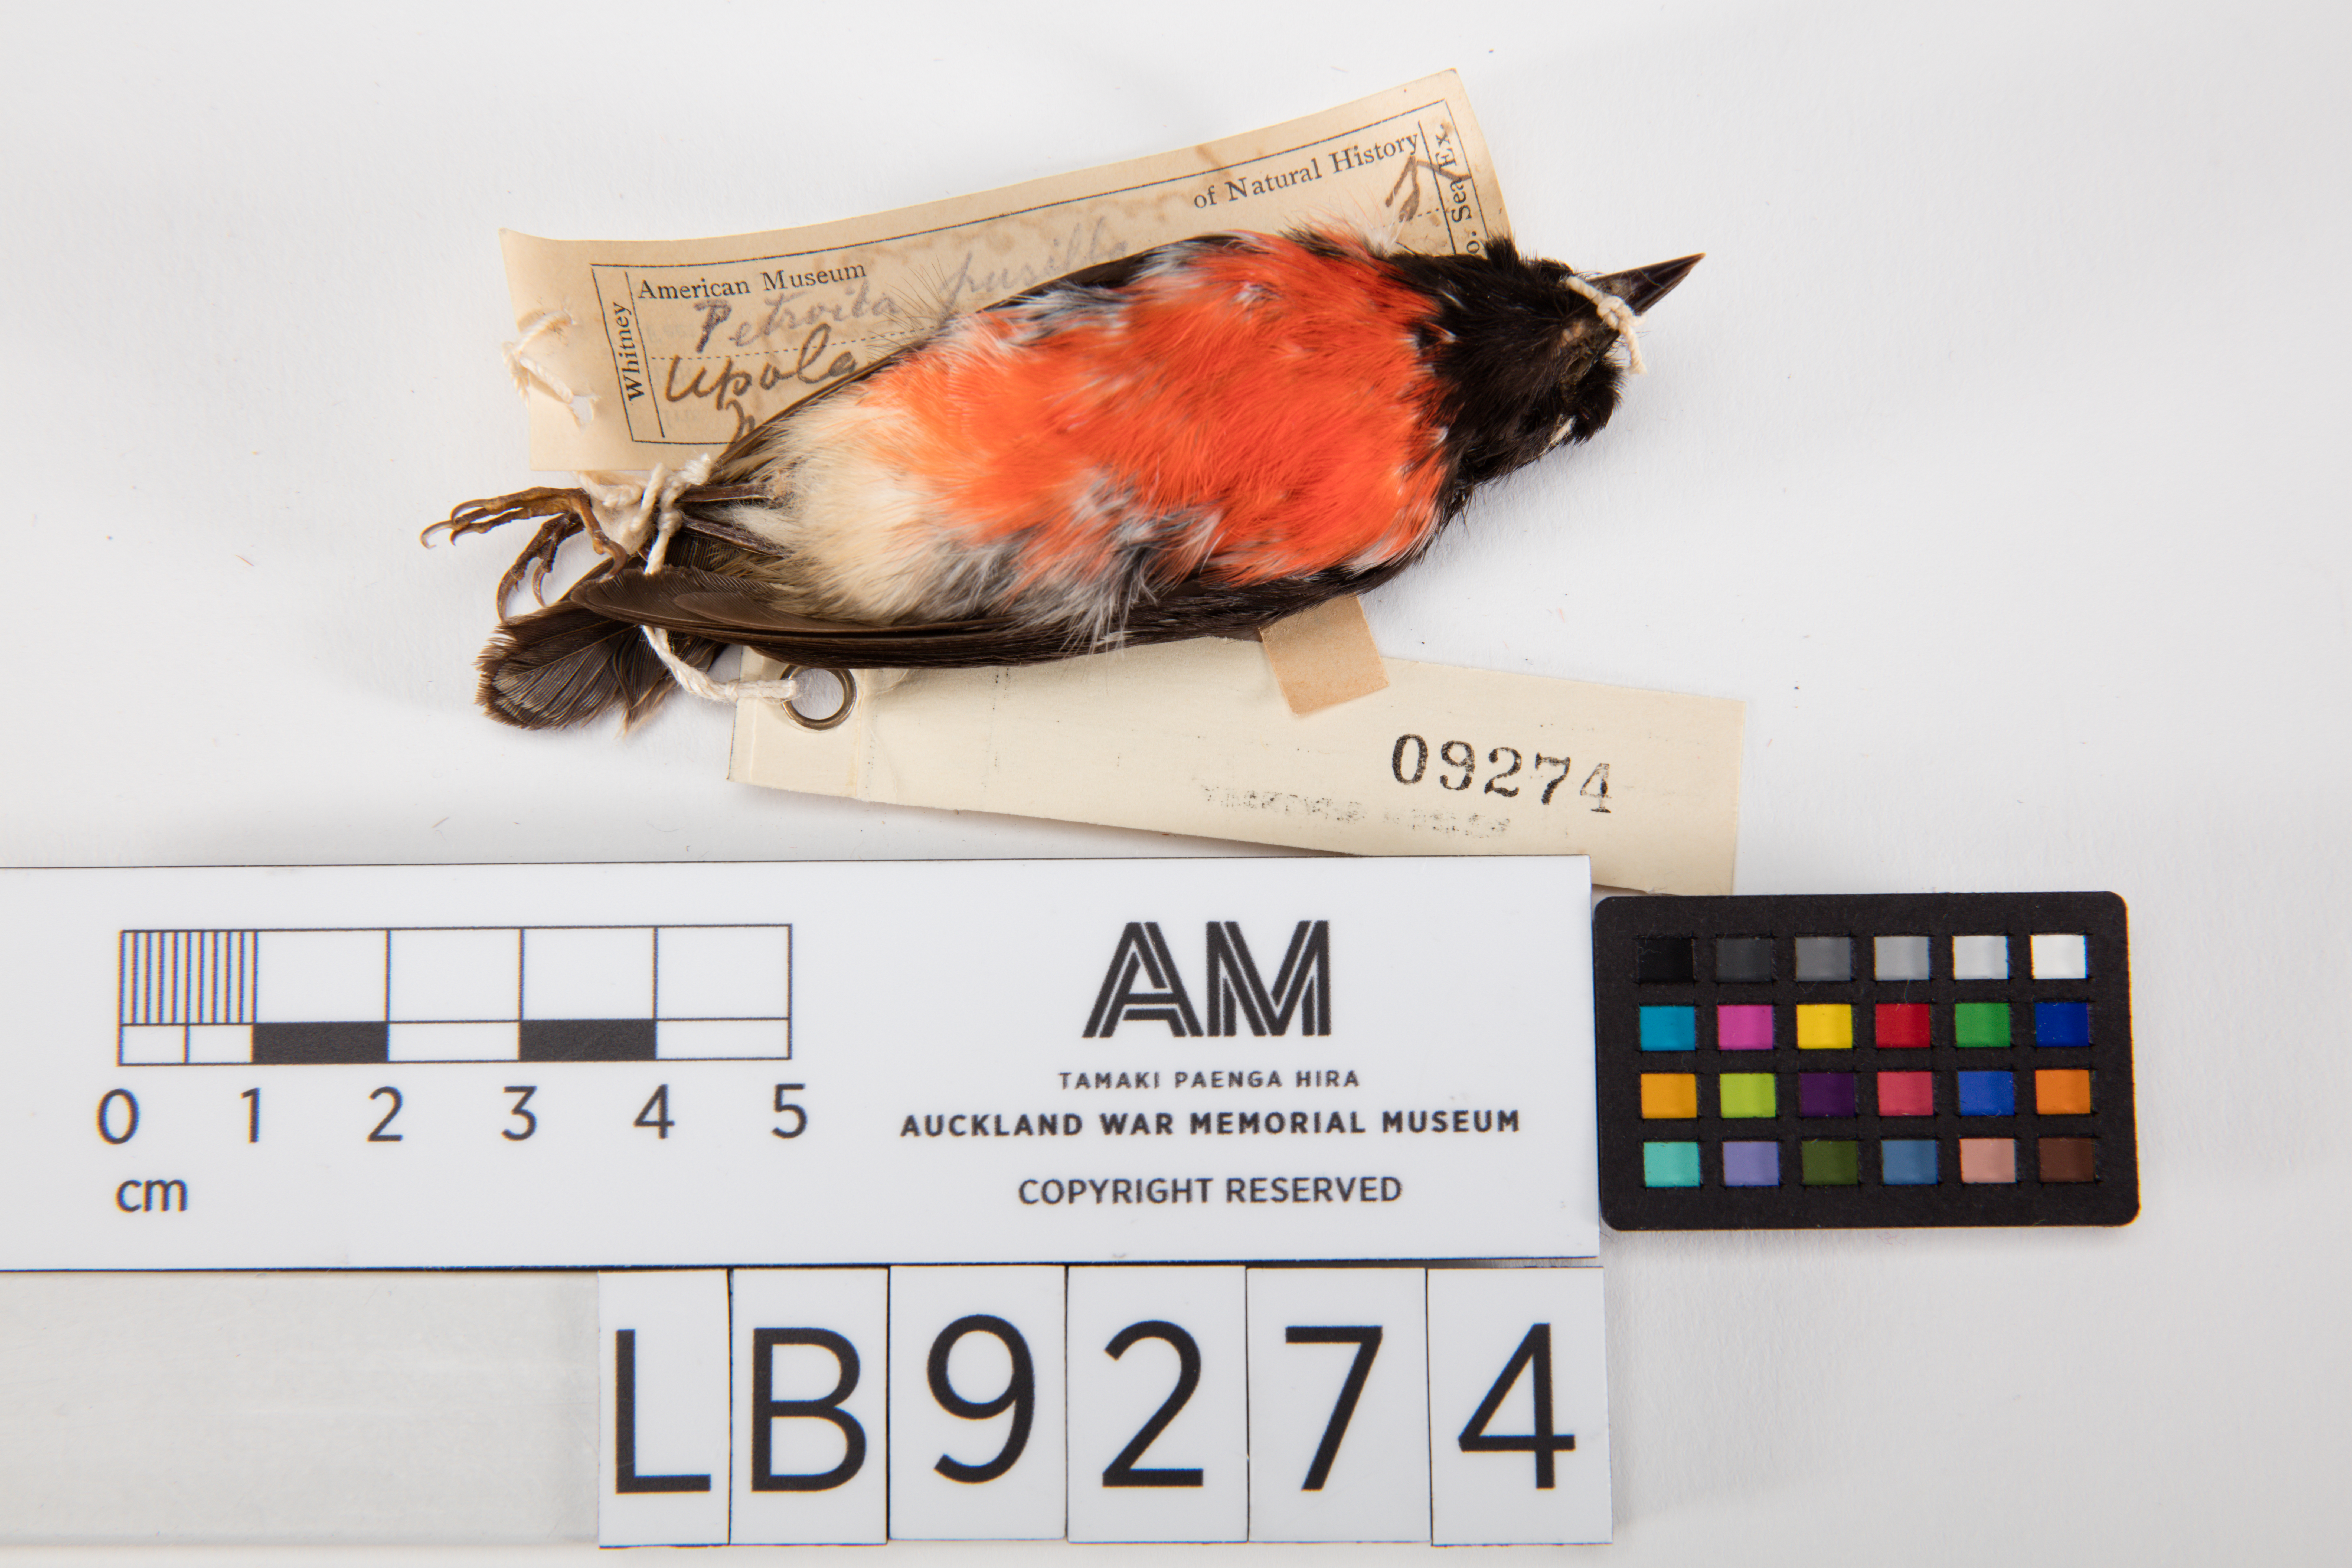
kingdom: Animalia
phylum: Chordata
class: Aves
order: Passeriformes
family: Petroicidae
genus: Petroica
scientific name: Petroica multicolor
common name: Pacific robin
